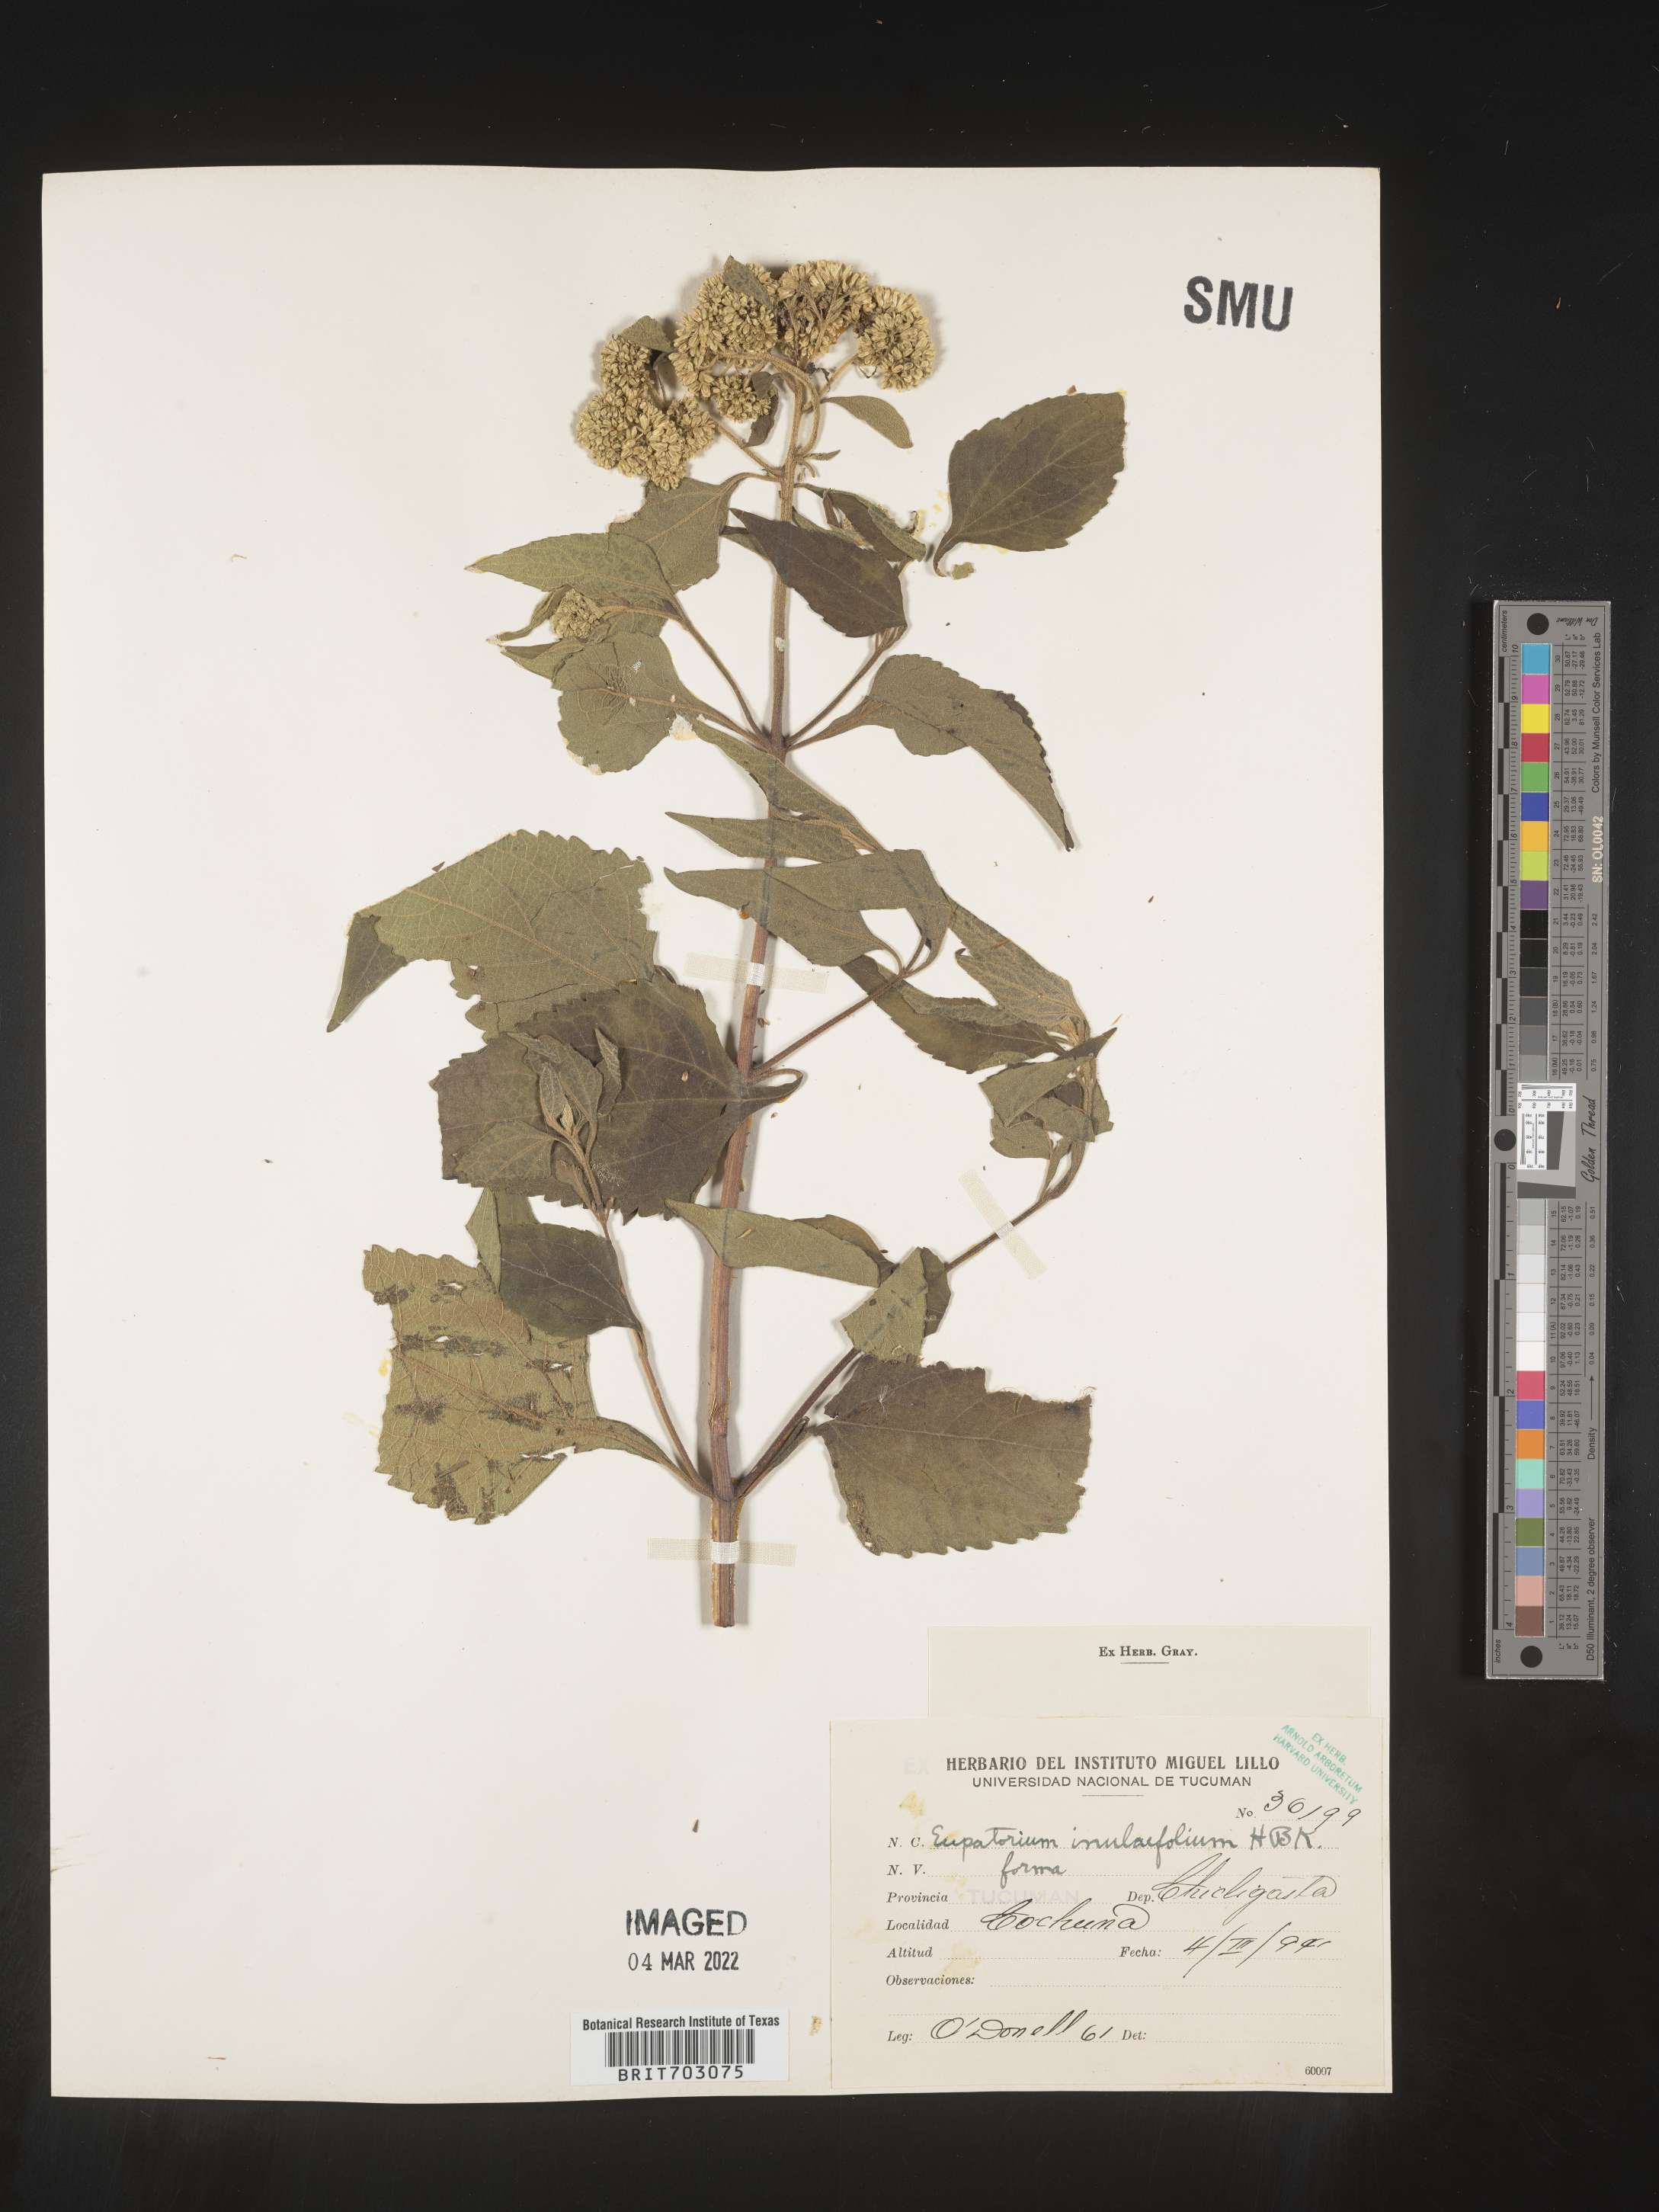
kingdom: Plantae
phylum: Tracheophyta
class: Magnoliopsida
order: Asterales
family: Asteraceae
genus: Eupatorium
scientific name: Eupatorium
